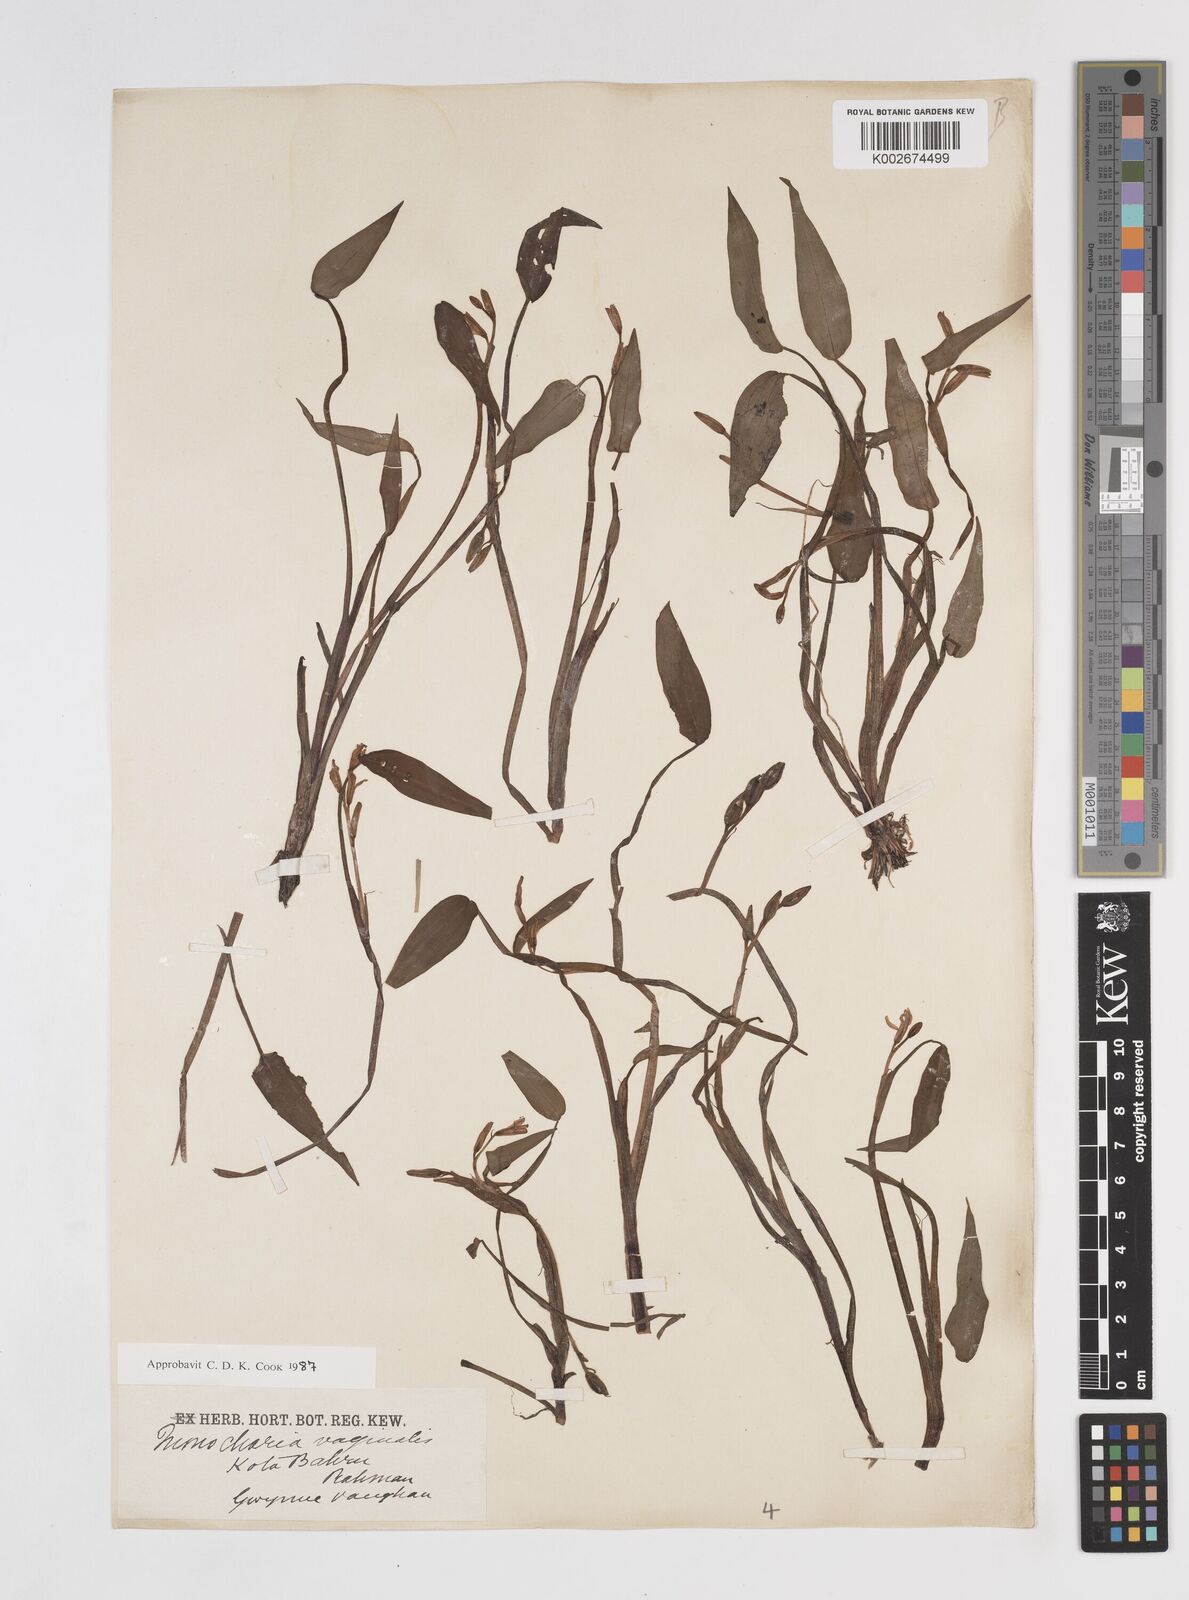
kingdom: Plantae
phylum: Tracheophyta
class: Liliopsida
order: Commelinales
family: Pontederiaceae
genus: Pontederia
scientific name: Pontederia vaginalis
